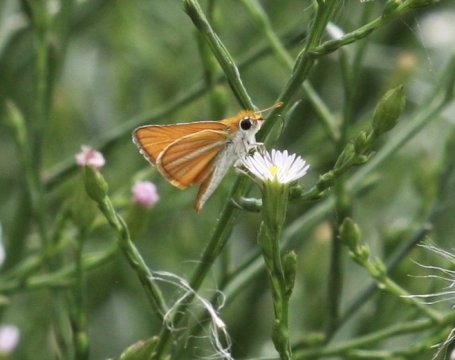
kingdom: Animalia
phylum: Arthropoda
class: Insecta
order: Lepidoptera
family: Hesperiidae
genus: Copaeodes
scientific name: Copaeodes minima
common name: Southern Skipperling
